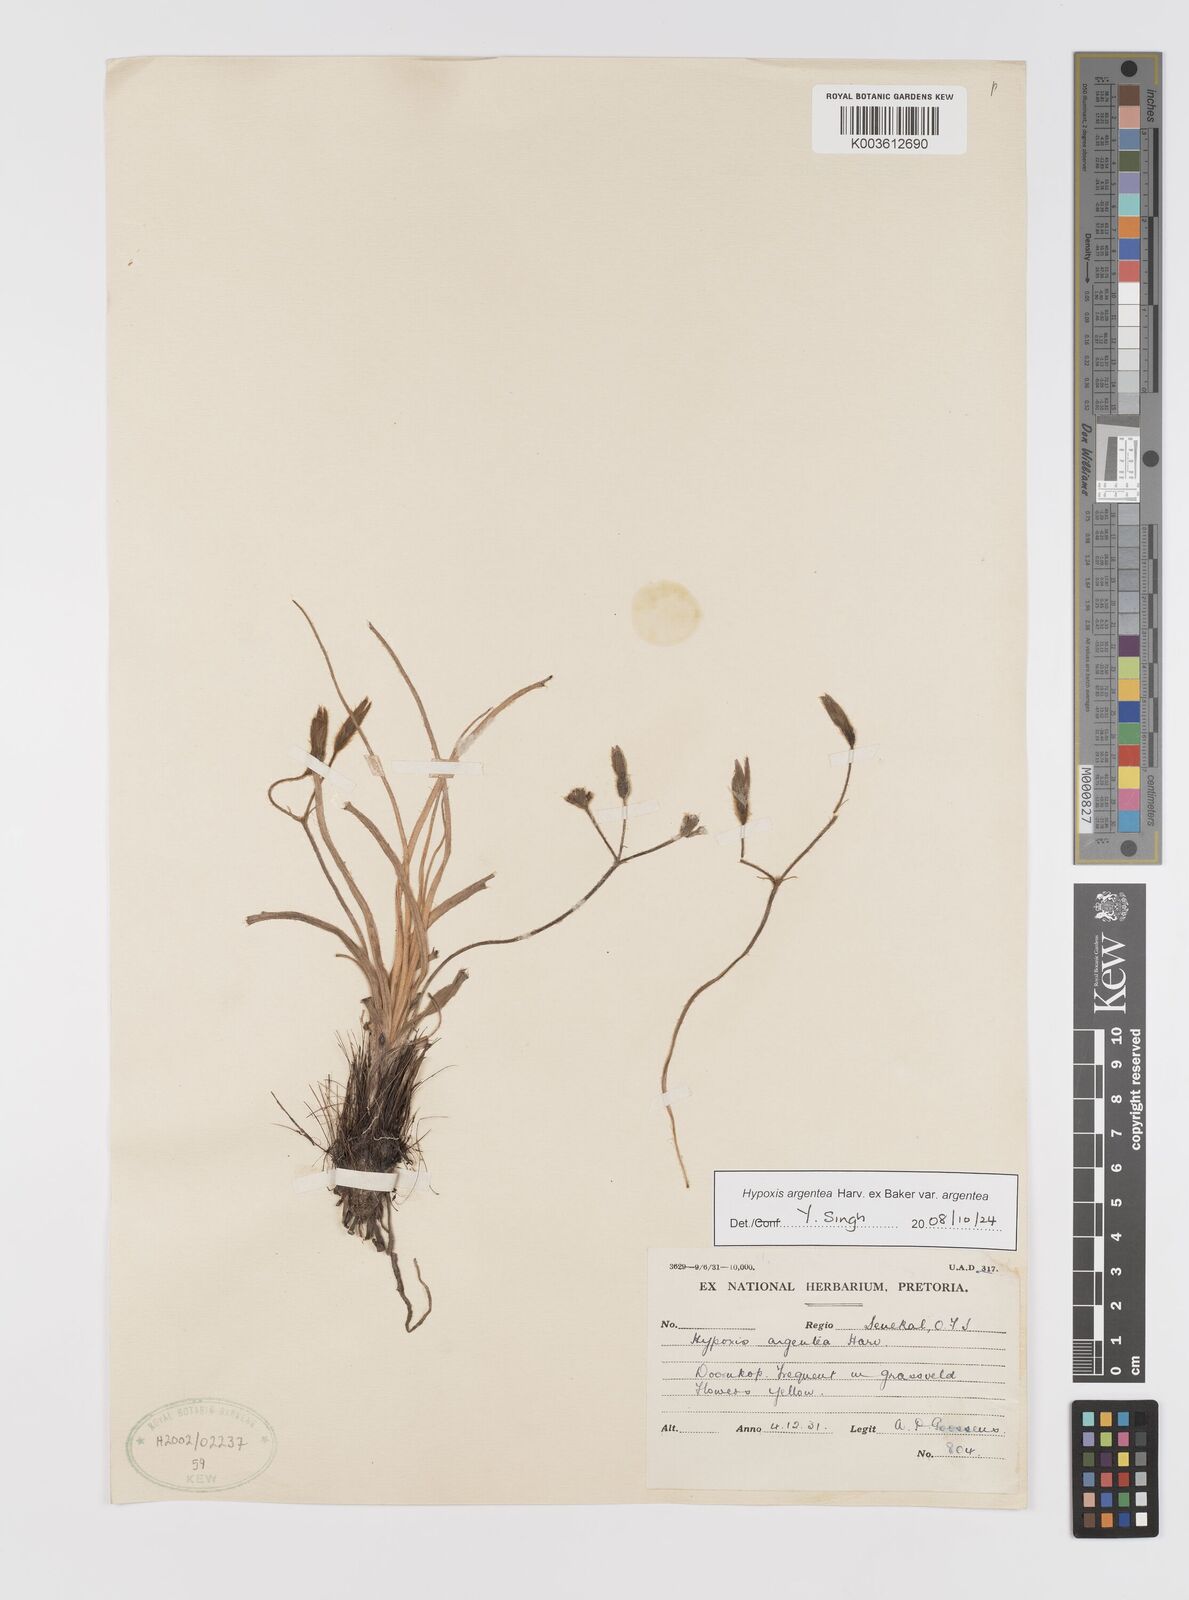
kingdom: Plantae
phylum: Tracheophyta
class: Liliopsida
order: Asparagales
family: Hypoxidaceae
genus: Hypoxis
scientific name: Hypoxis argentea
